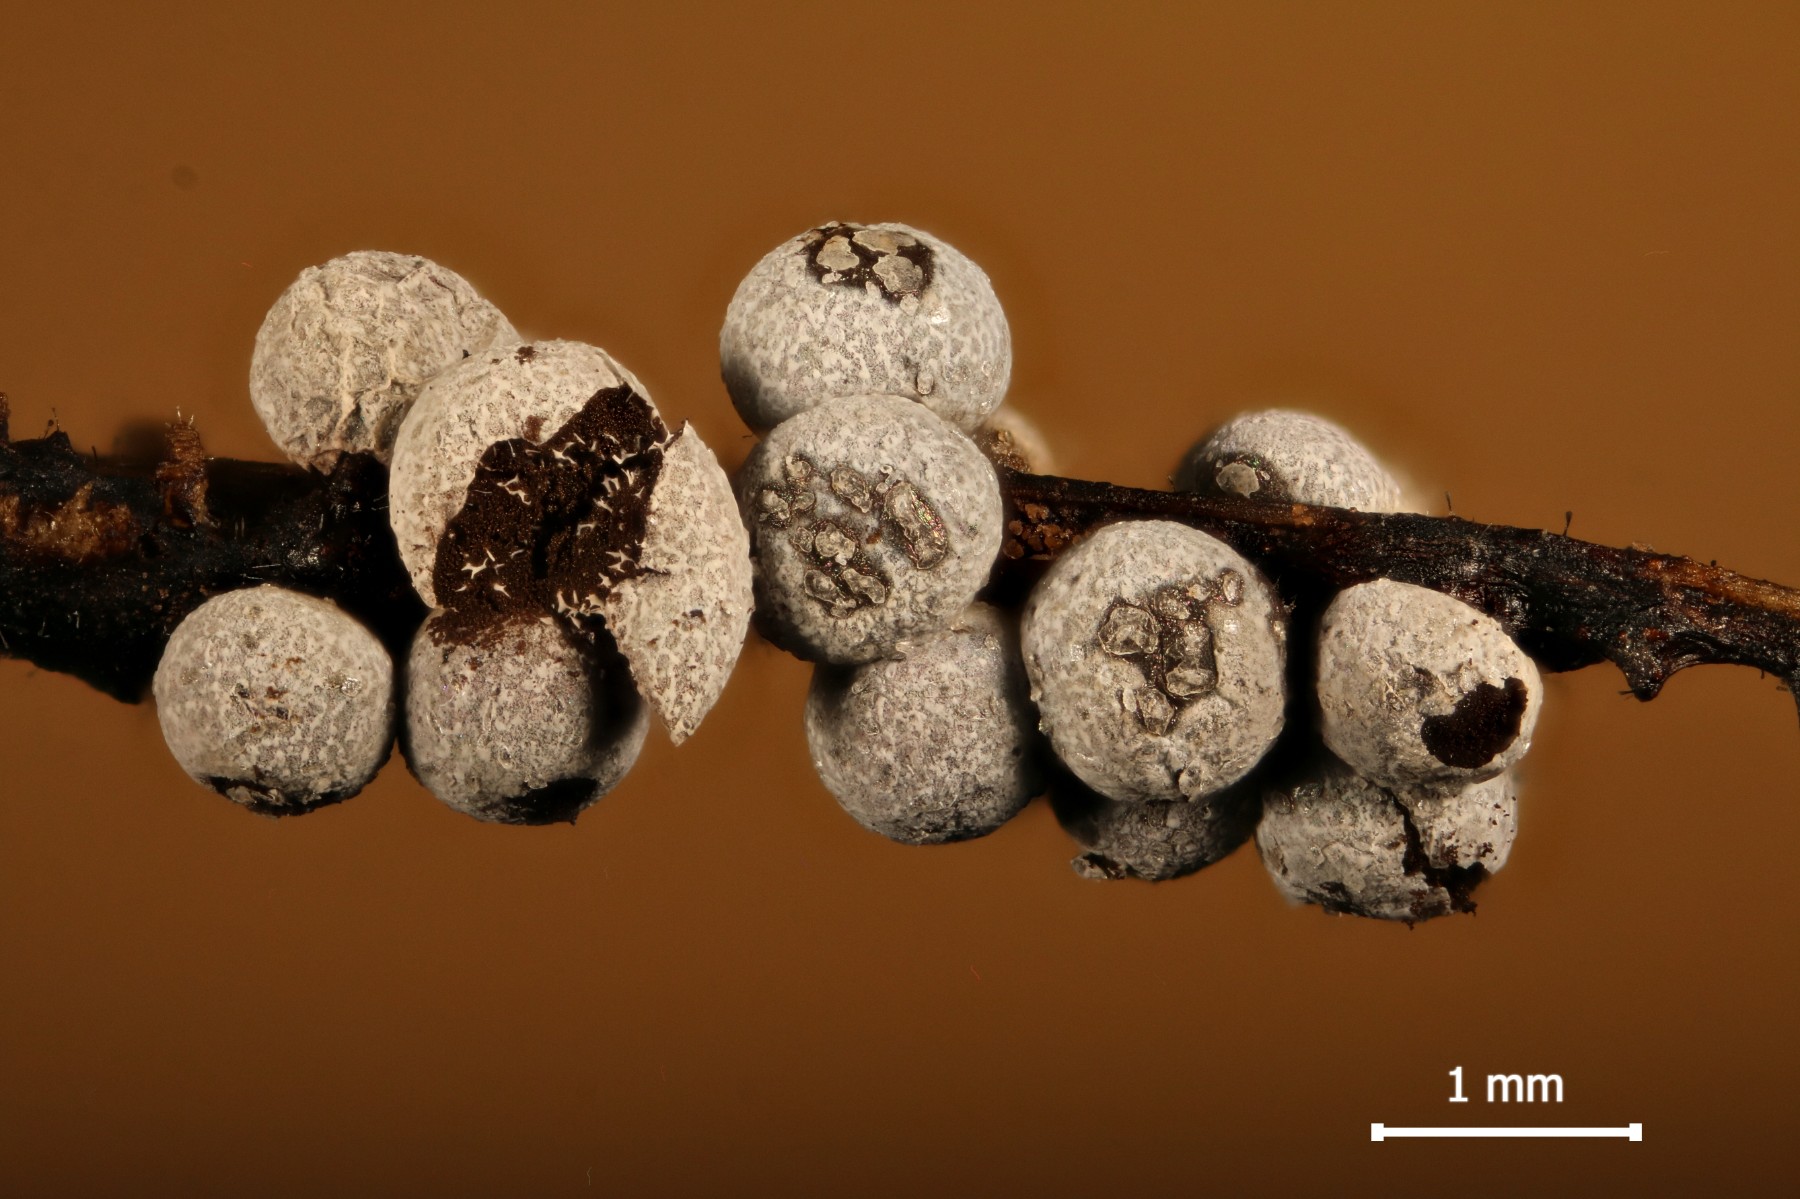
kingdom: Protozoa
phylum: Mycetozoa
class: Myxomycetes
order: Physarales
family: Physaraceae
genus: Badhamia
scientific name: Badhamia panicea
